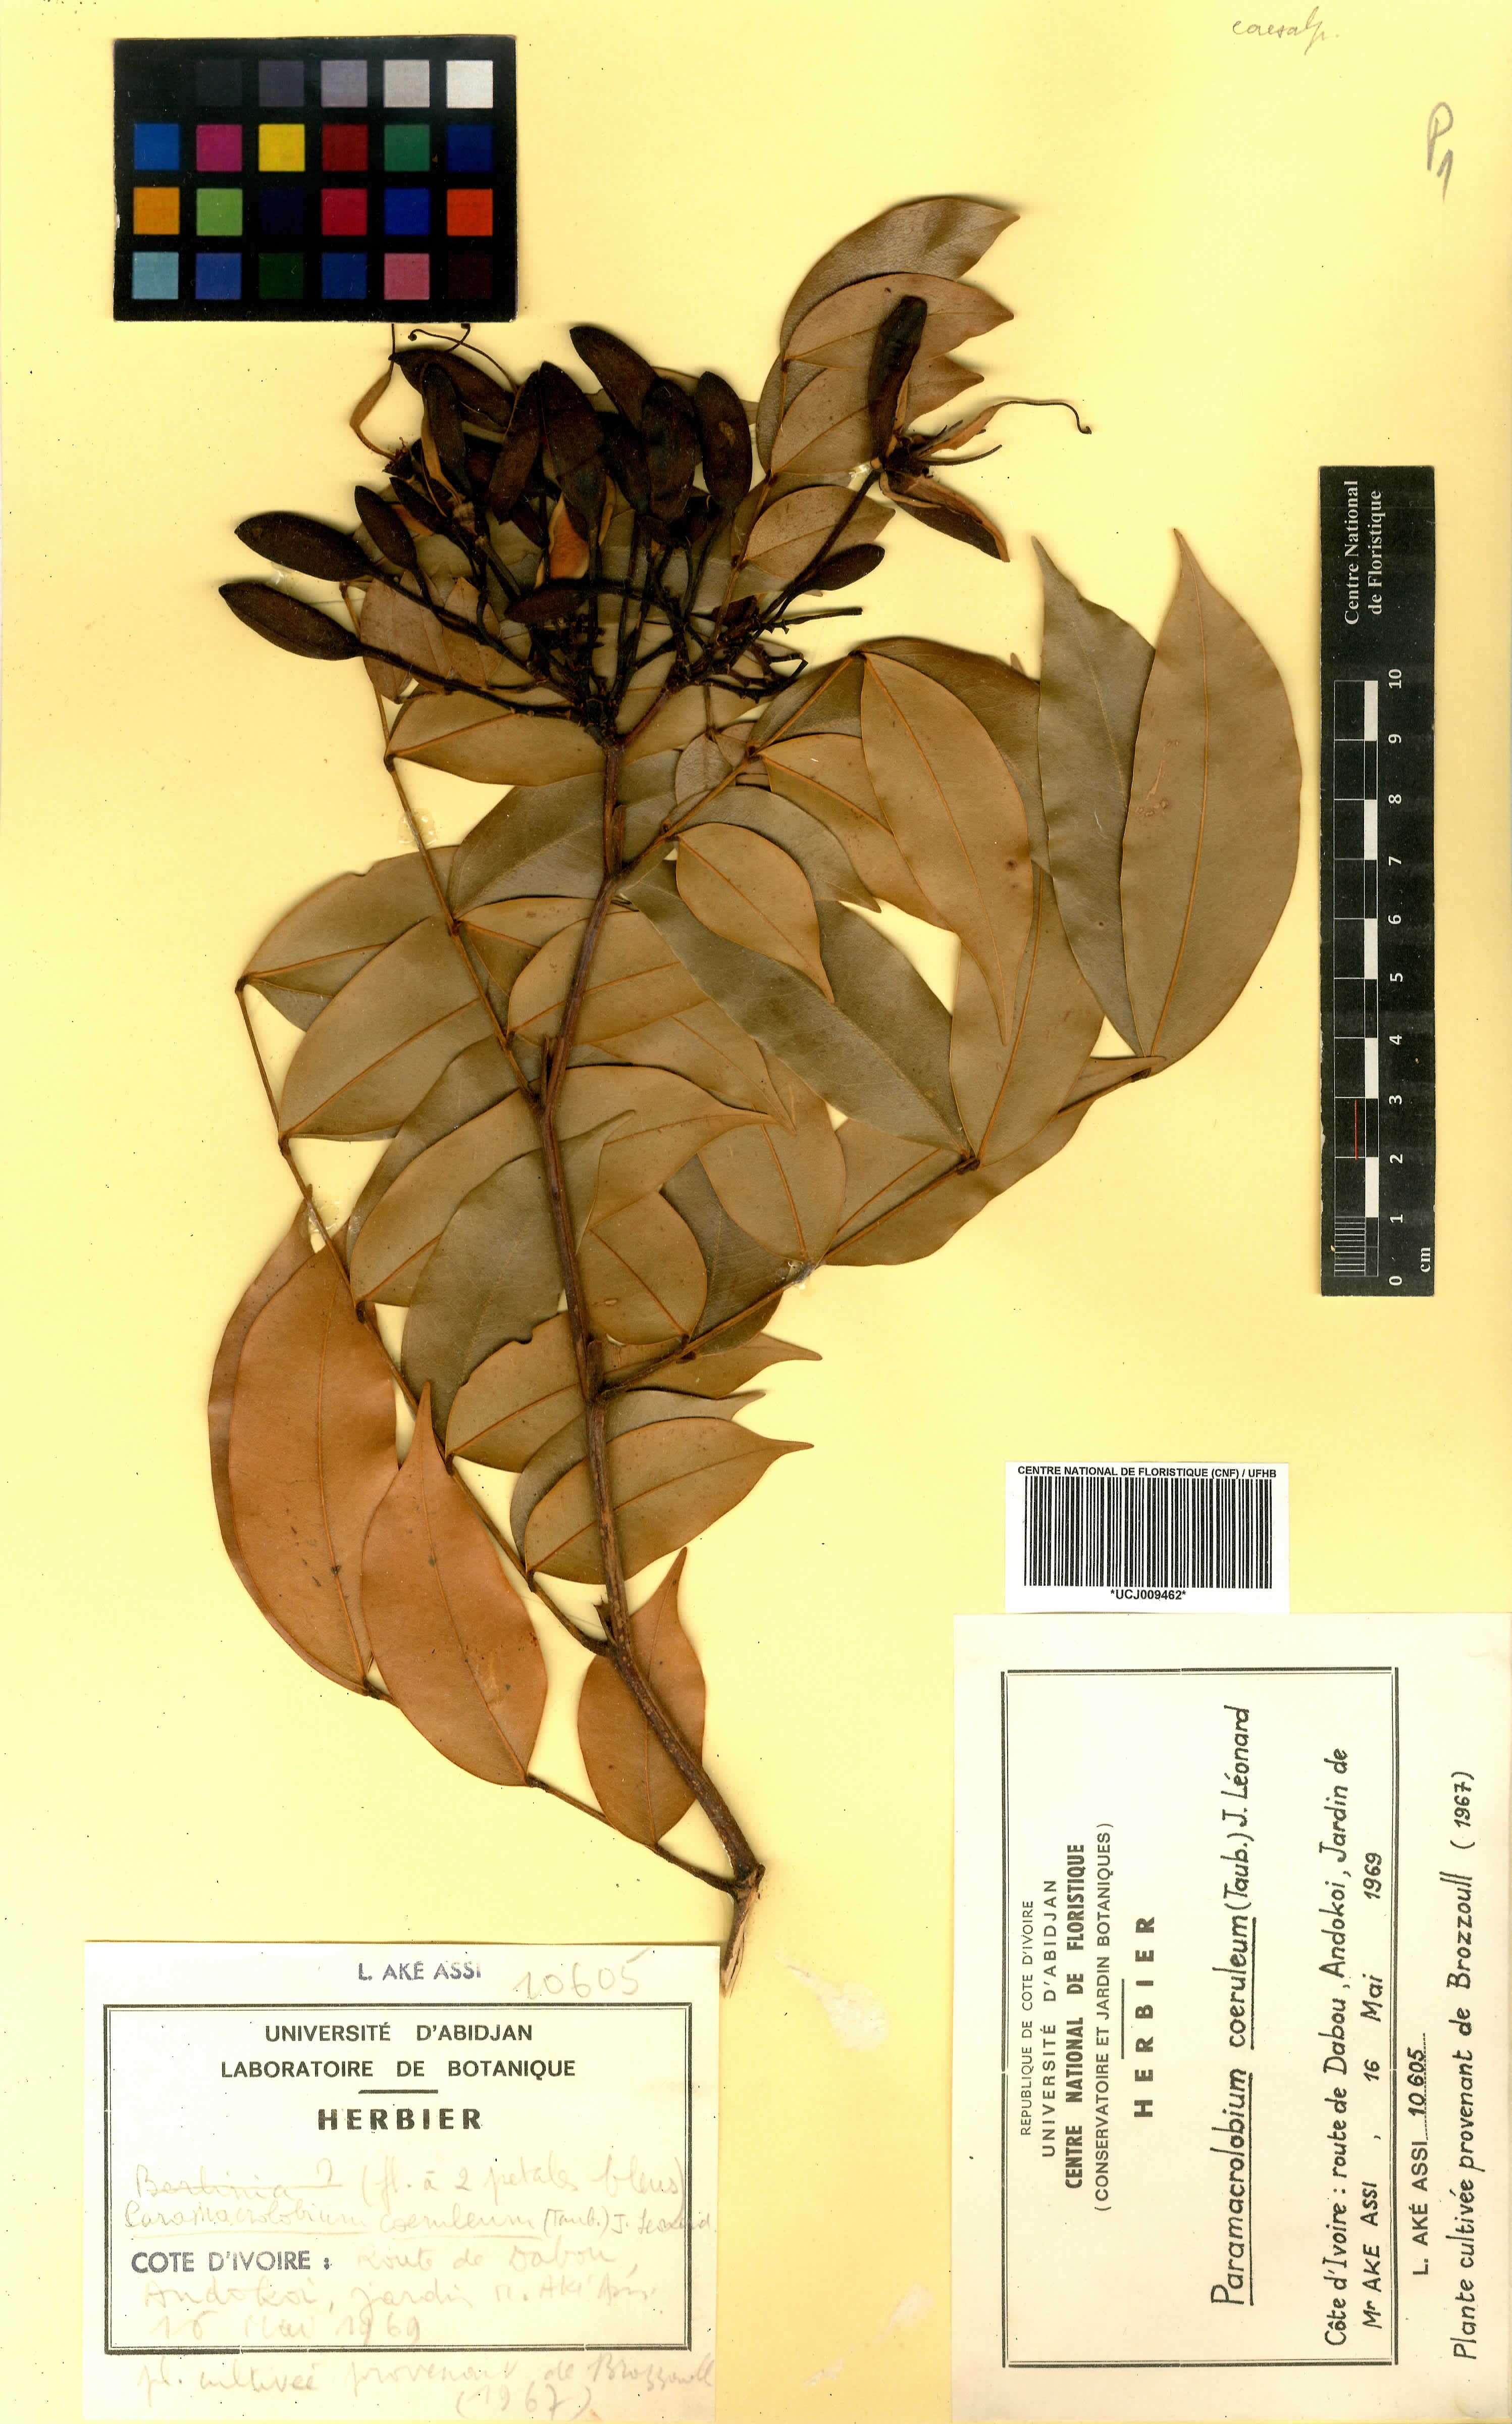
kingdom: Plantae
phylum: Tracheophyta
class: Magnoliopsida
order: Fabales
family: Fabaceae
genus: Paramacrolobium
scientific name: Paramacrolobium coeruleum
